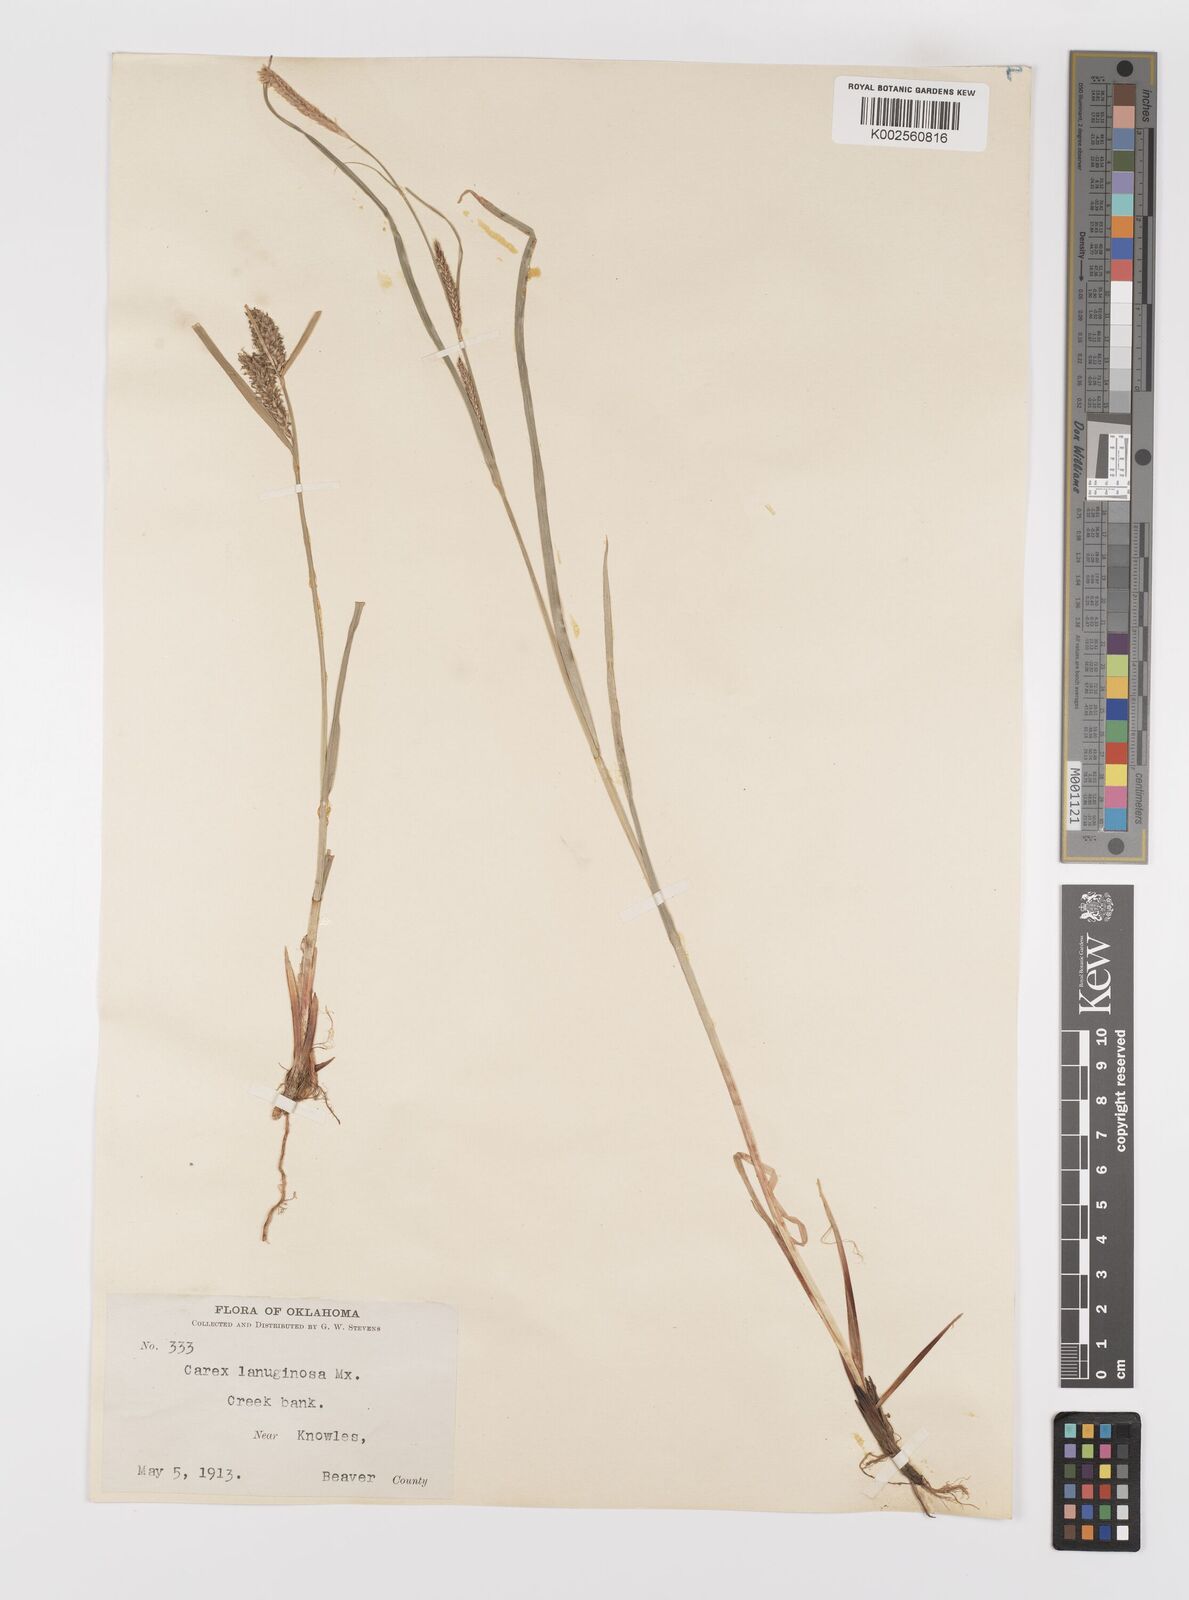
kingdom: Plantae
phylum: Tracheophyta
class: Liliopsida
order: Poales
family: Cyperaceae
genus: Carex
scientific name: Carex lasiocarpa
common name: Slender sedge
